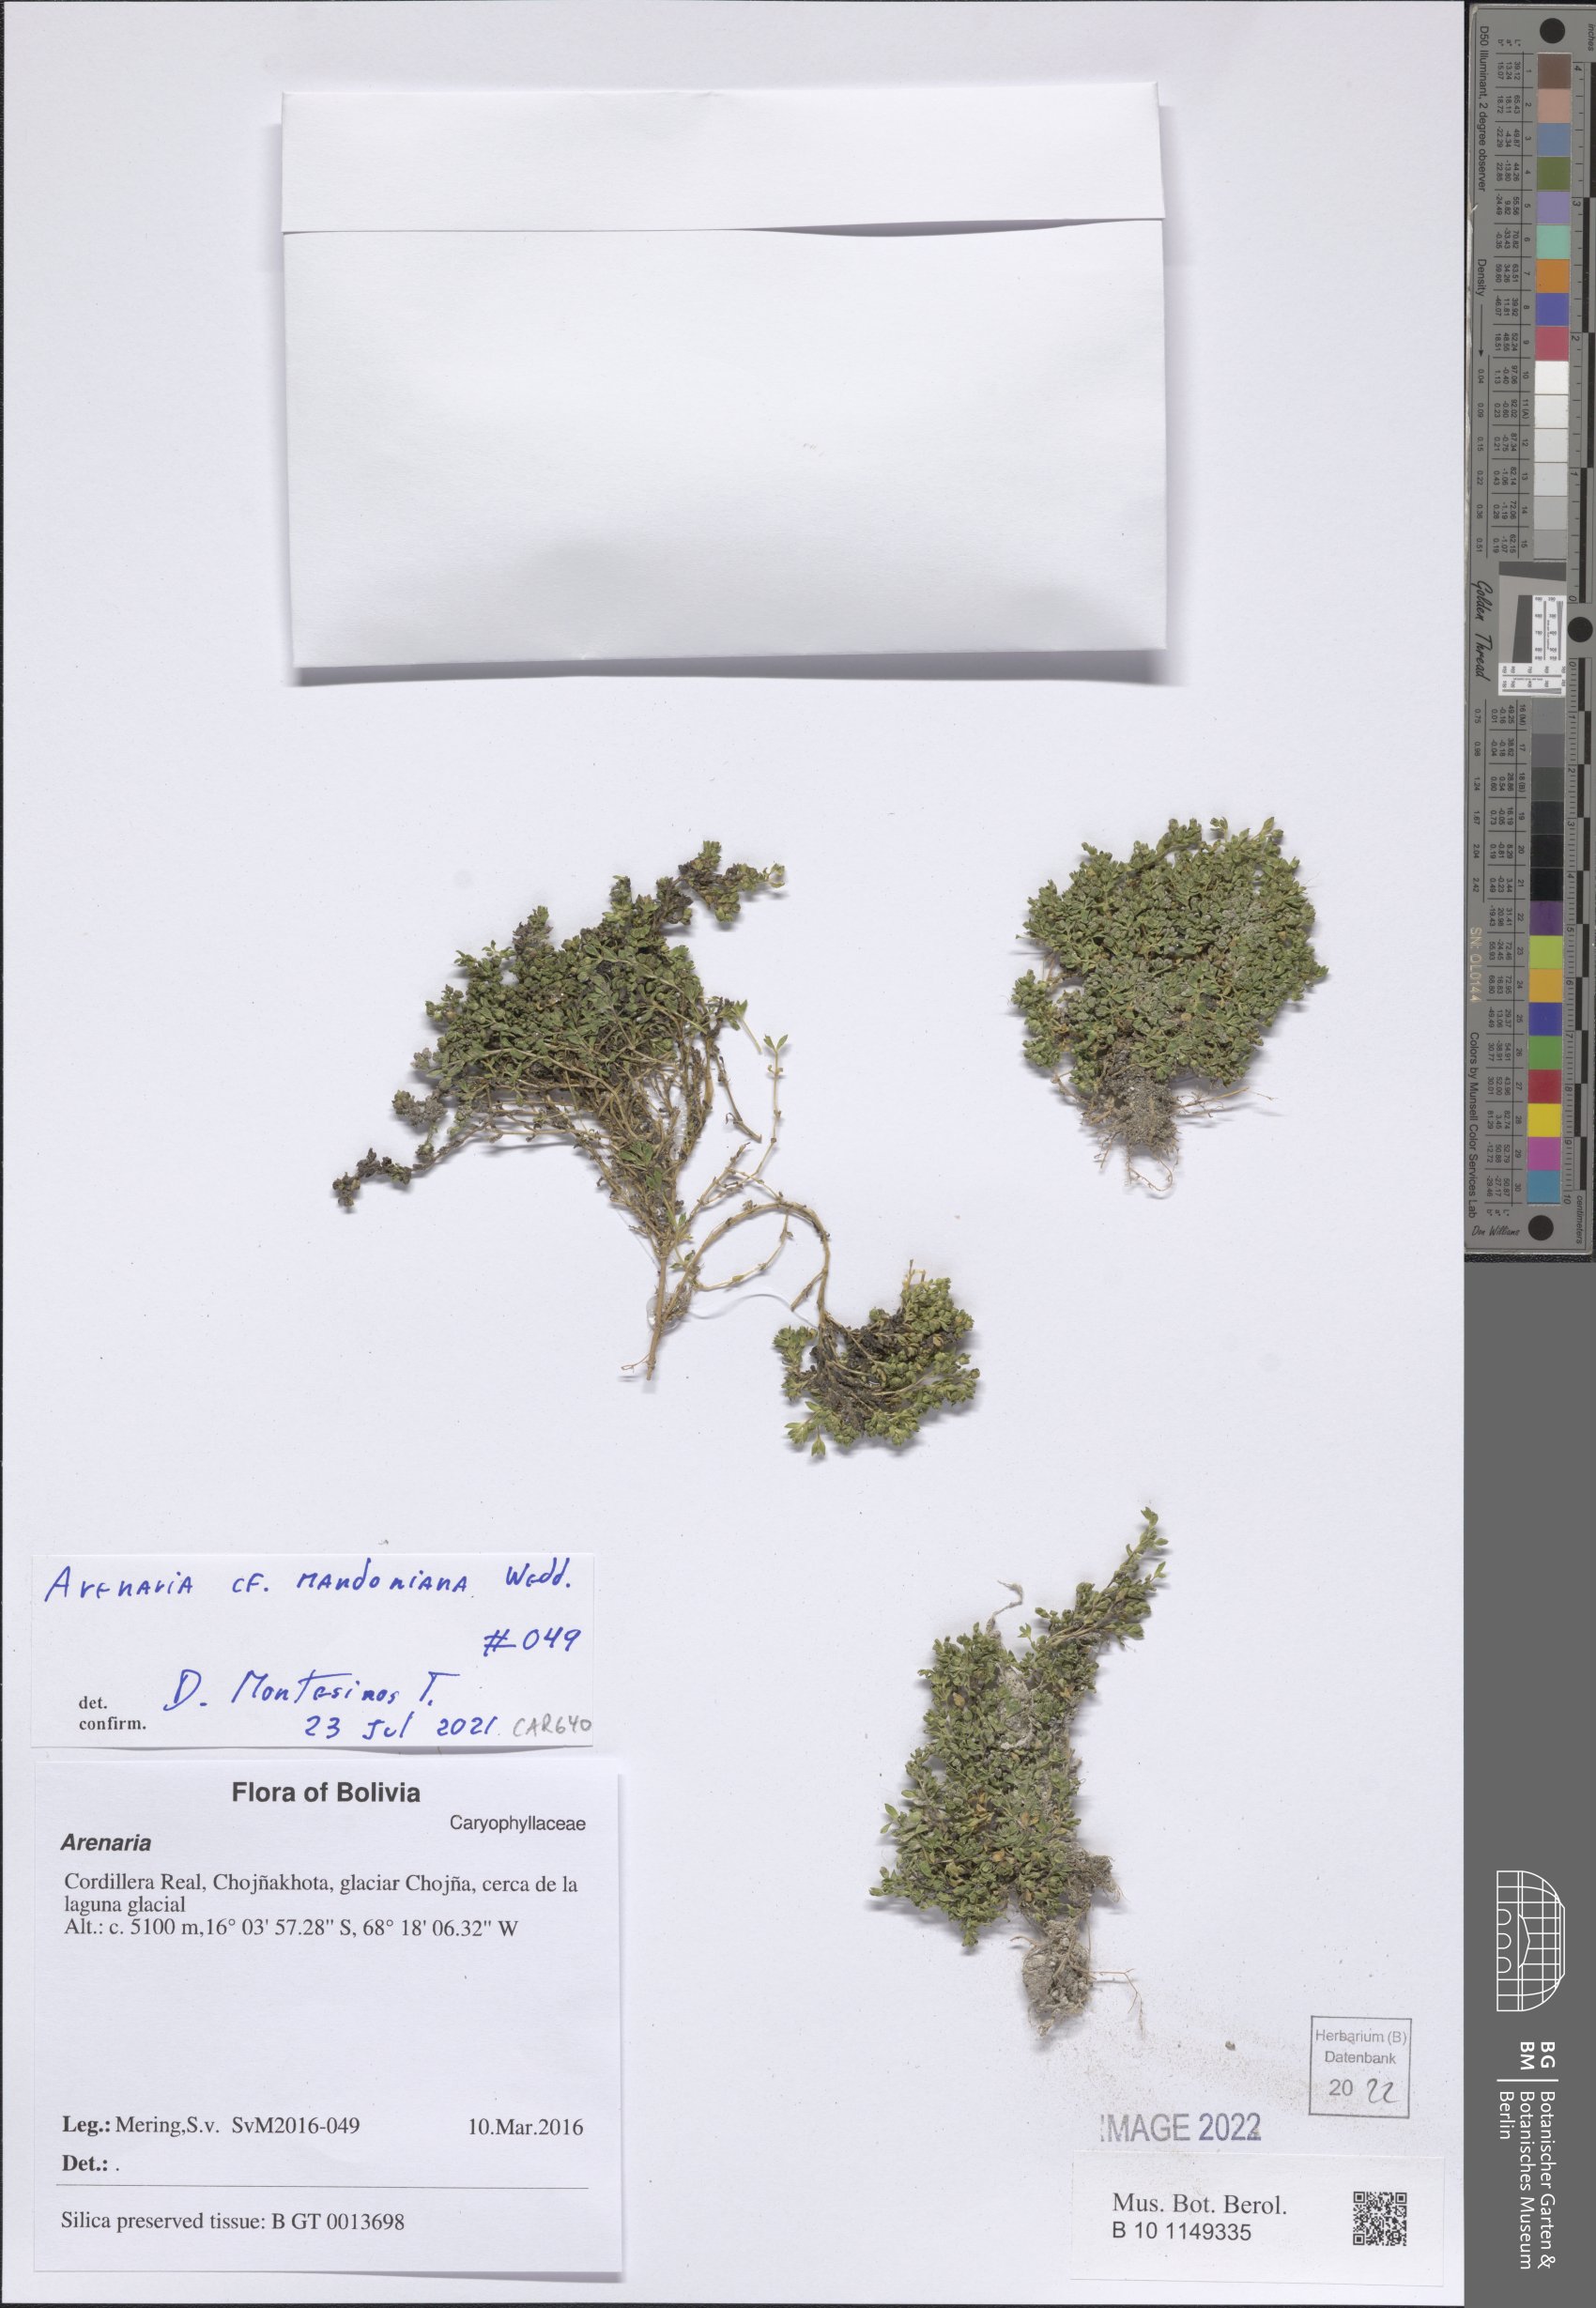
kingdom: Plantae
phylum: Tracheophyta
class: Magnoliopsida
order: Caryophyllales
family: Caryophyllaceae
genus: Arenaria
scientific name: Arenaria mandoniana
